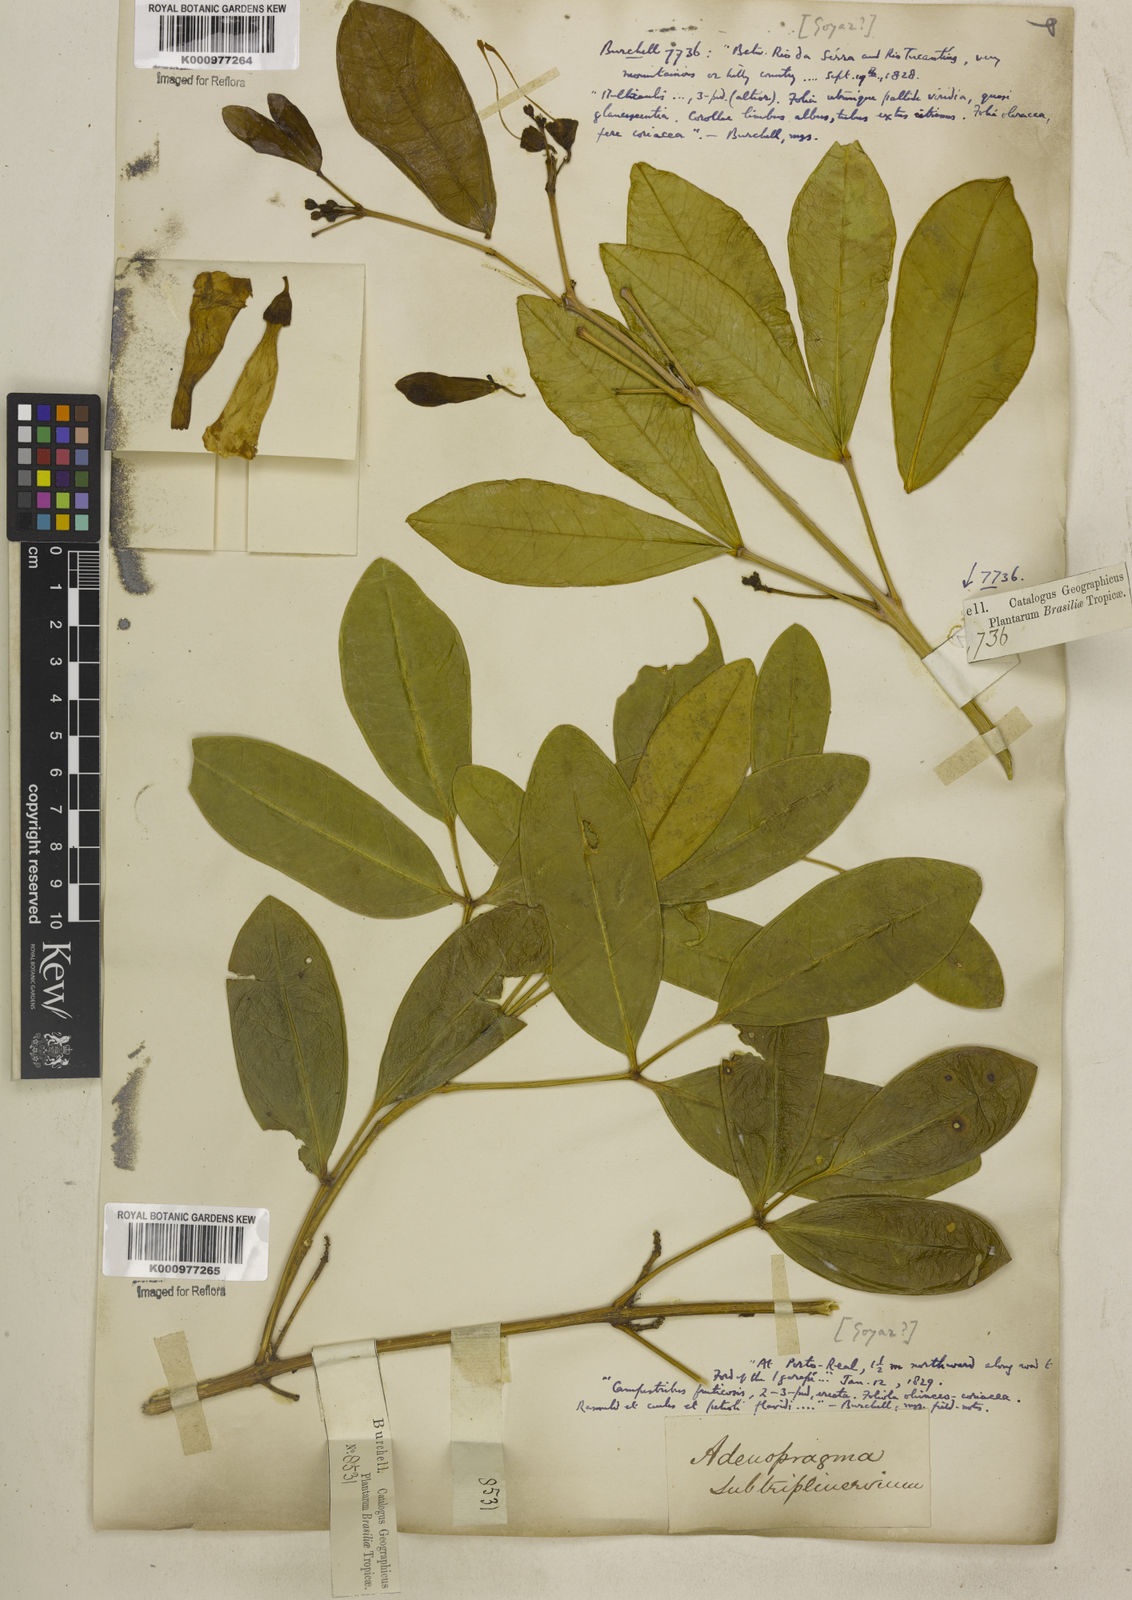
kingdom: Plantae
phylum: Tracheophyta
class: Magnoliopsida
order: Lamiales
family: Bignoniaceae
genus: Anemopaegma
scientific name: Anemopaegma glaucum
